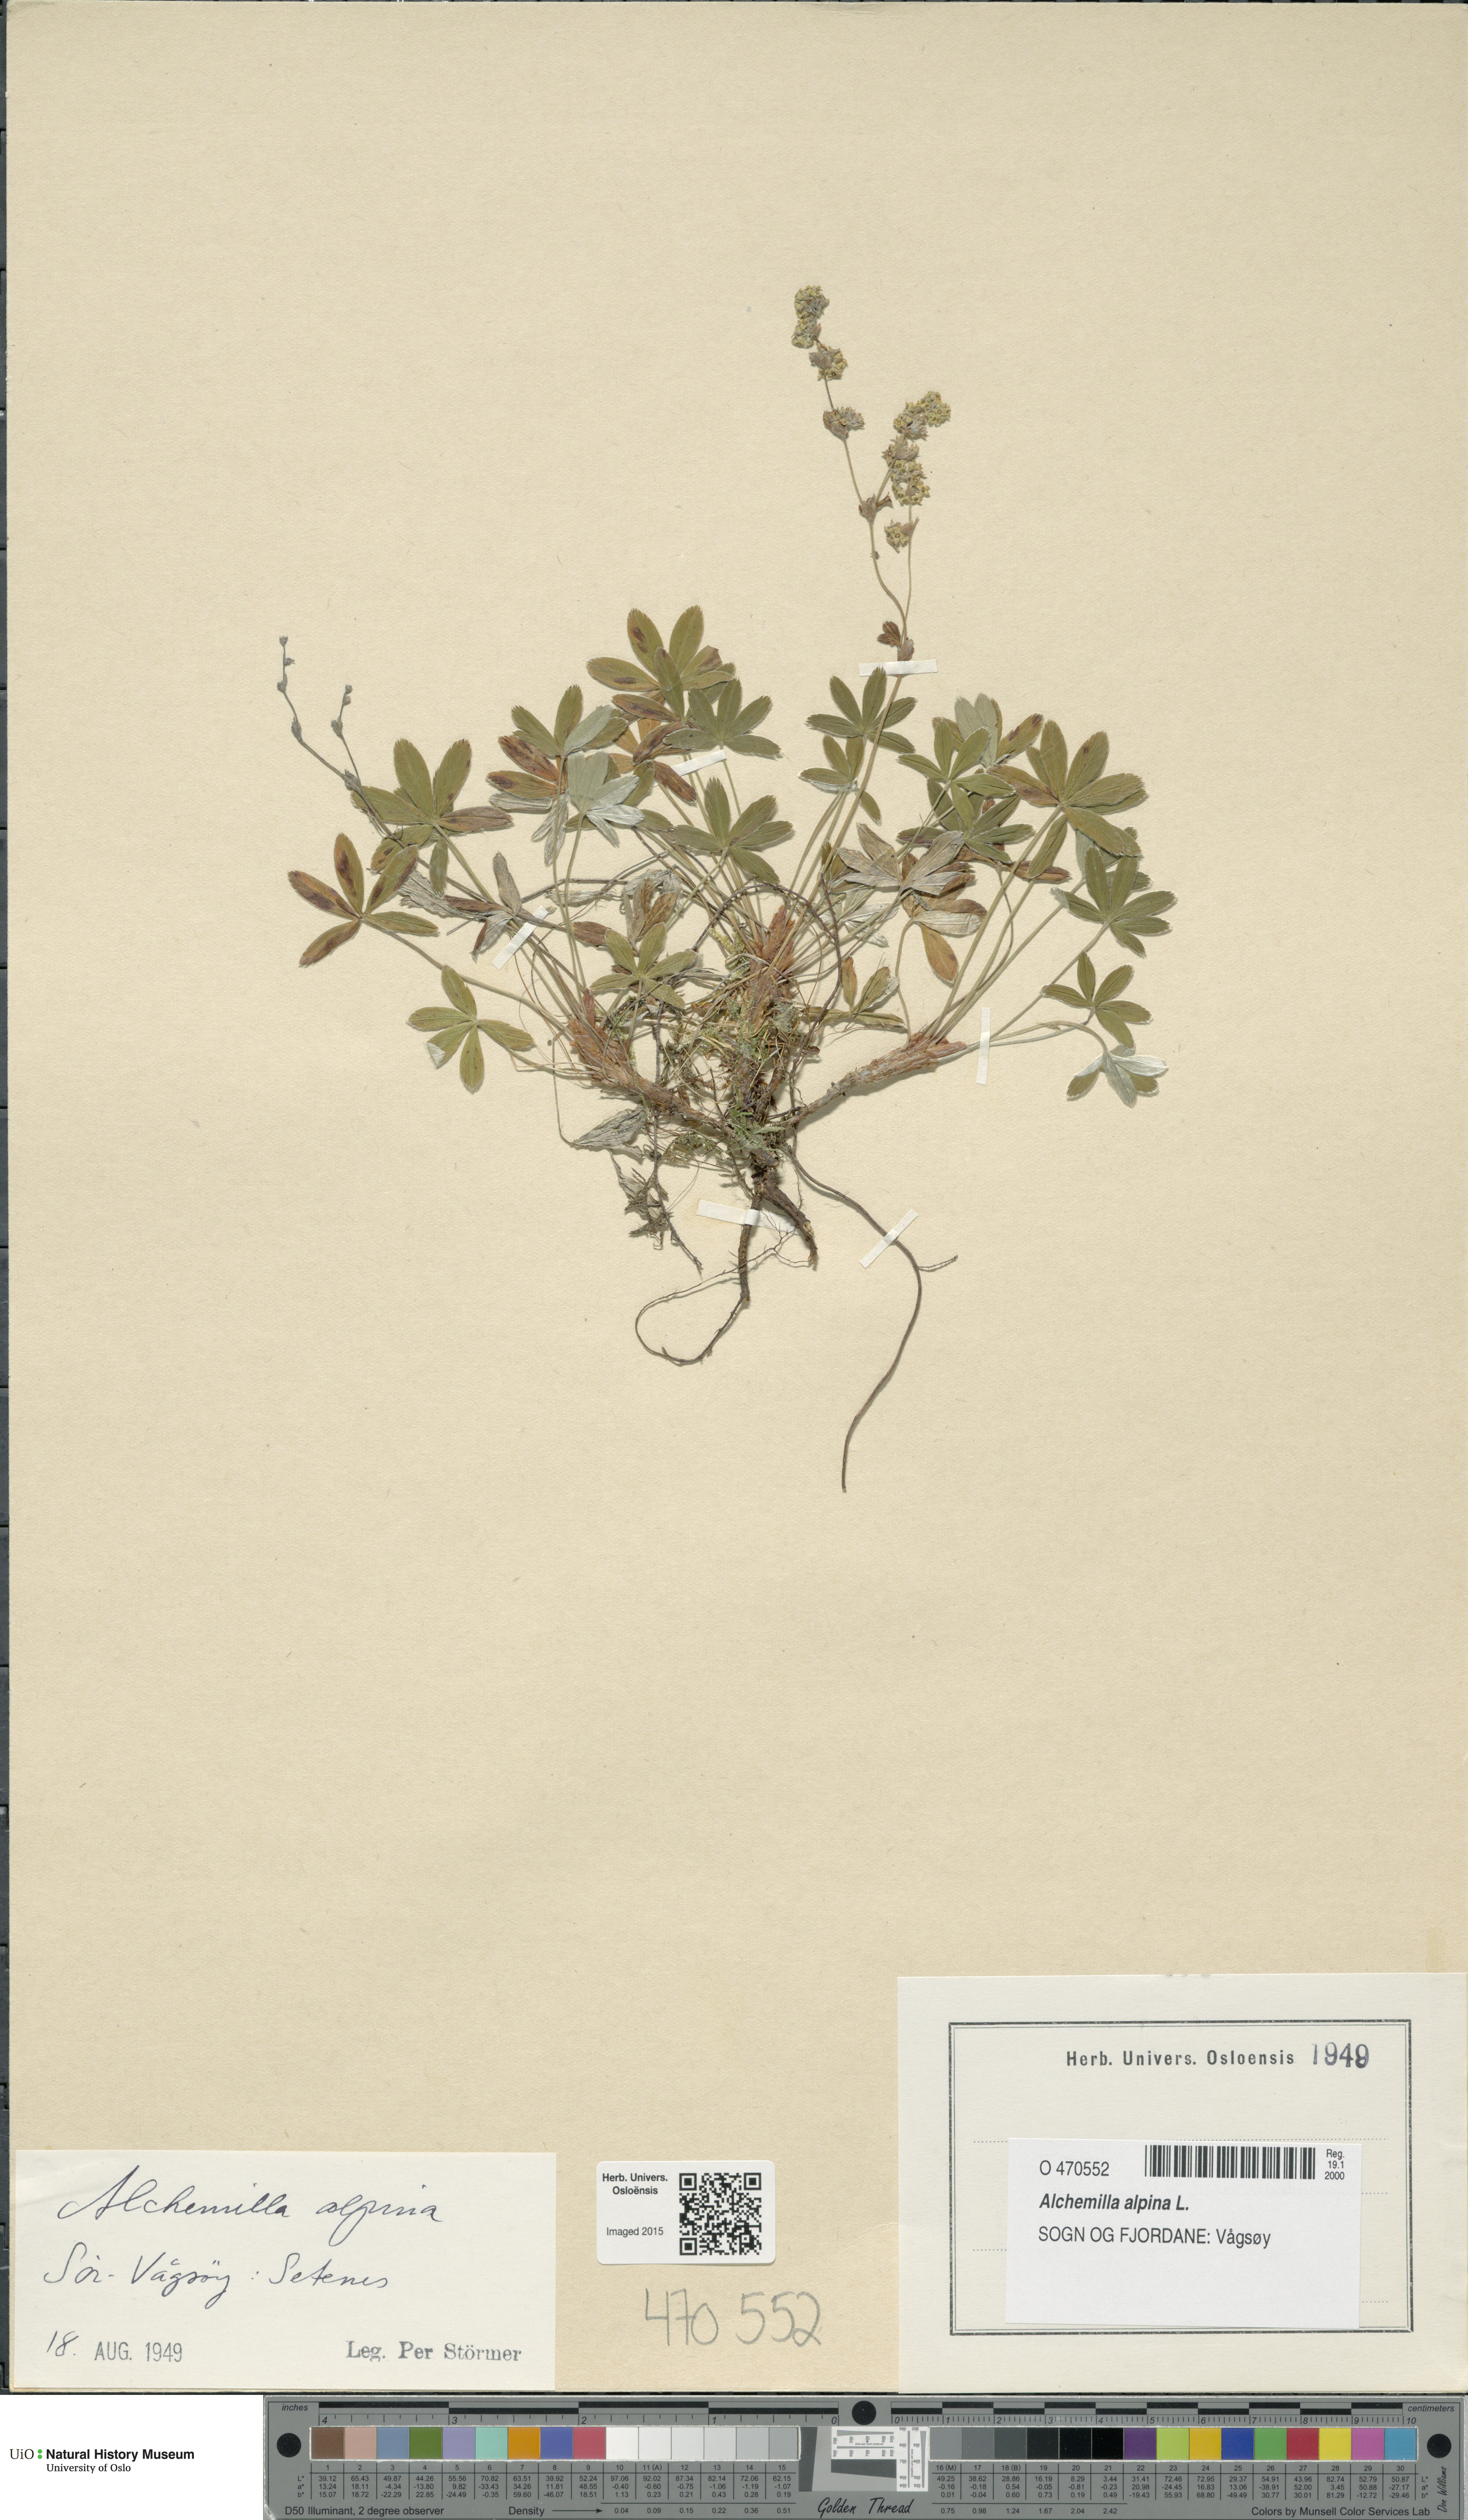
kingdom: Plantae
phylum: Tracheophyta
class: Magnoliopsida
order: Rosales
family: Rosaceae
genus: Alchemilla
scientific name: Alchemilla alpina
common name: Alpine lady's-mantle
